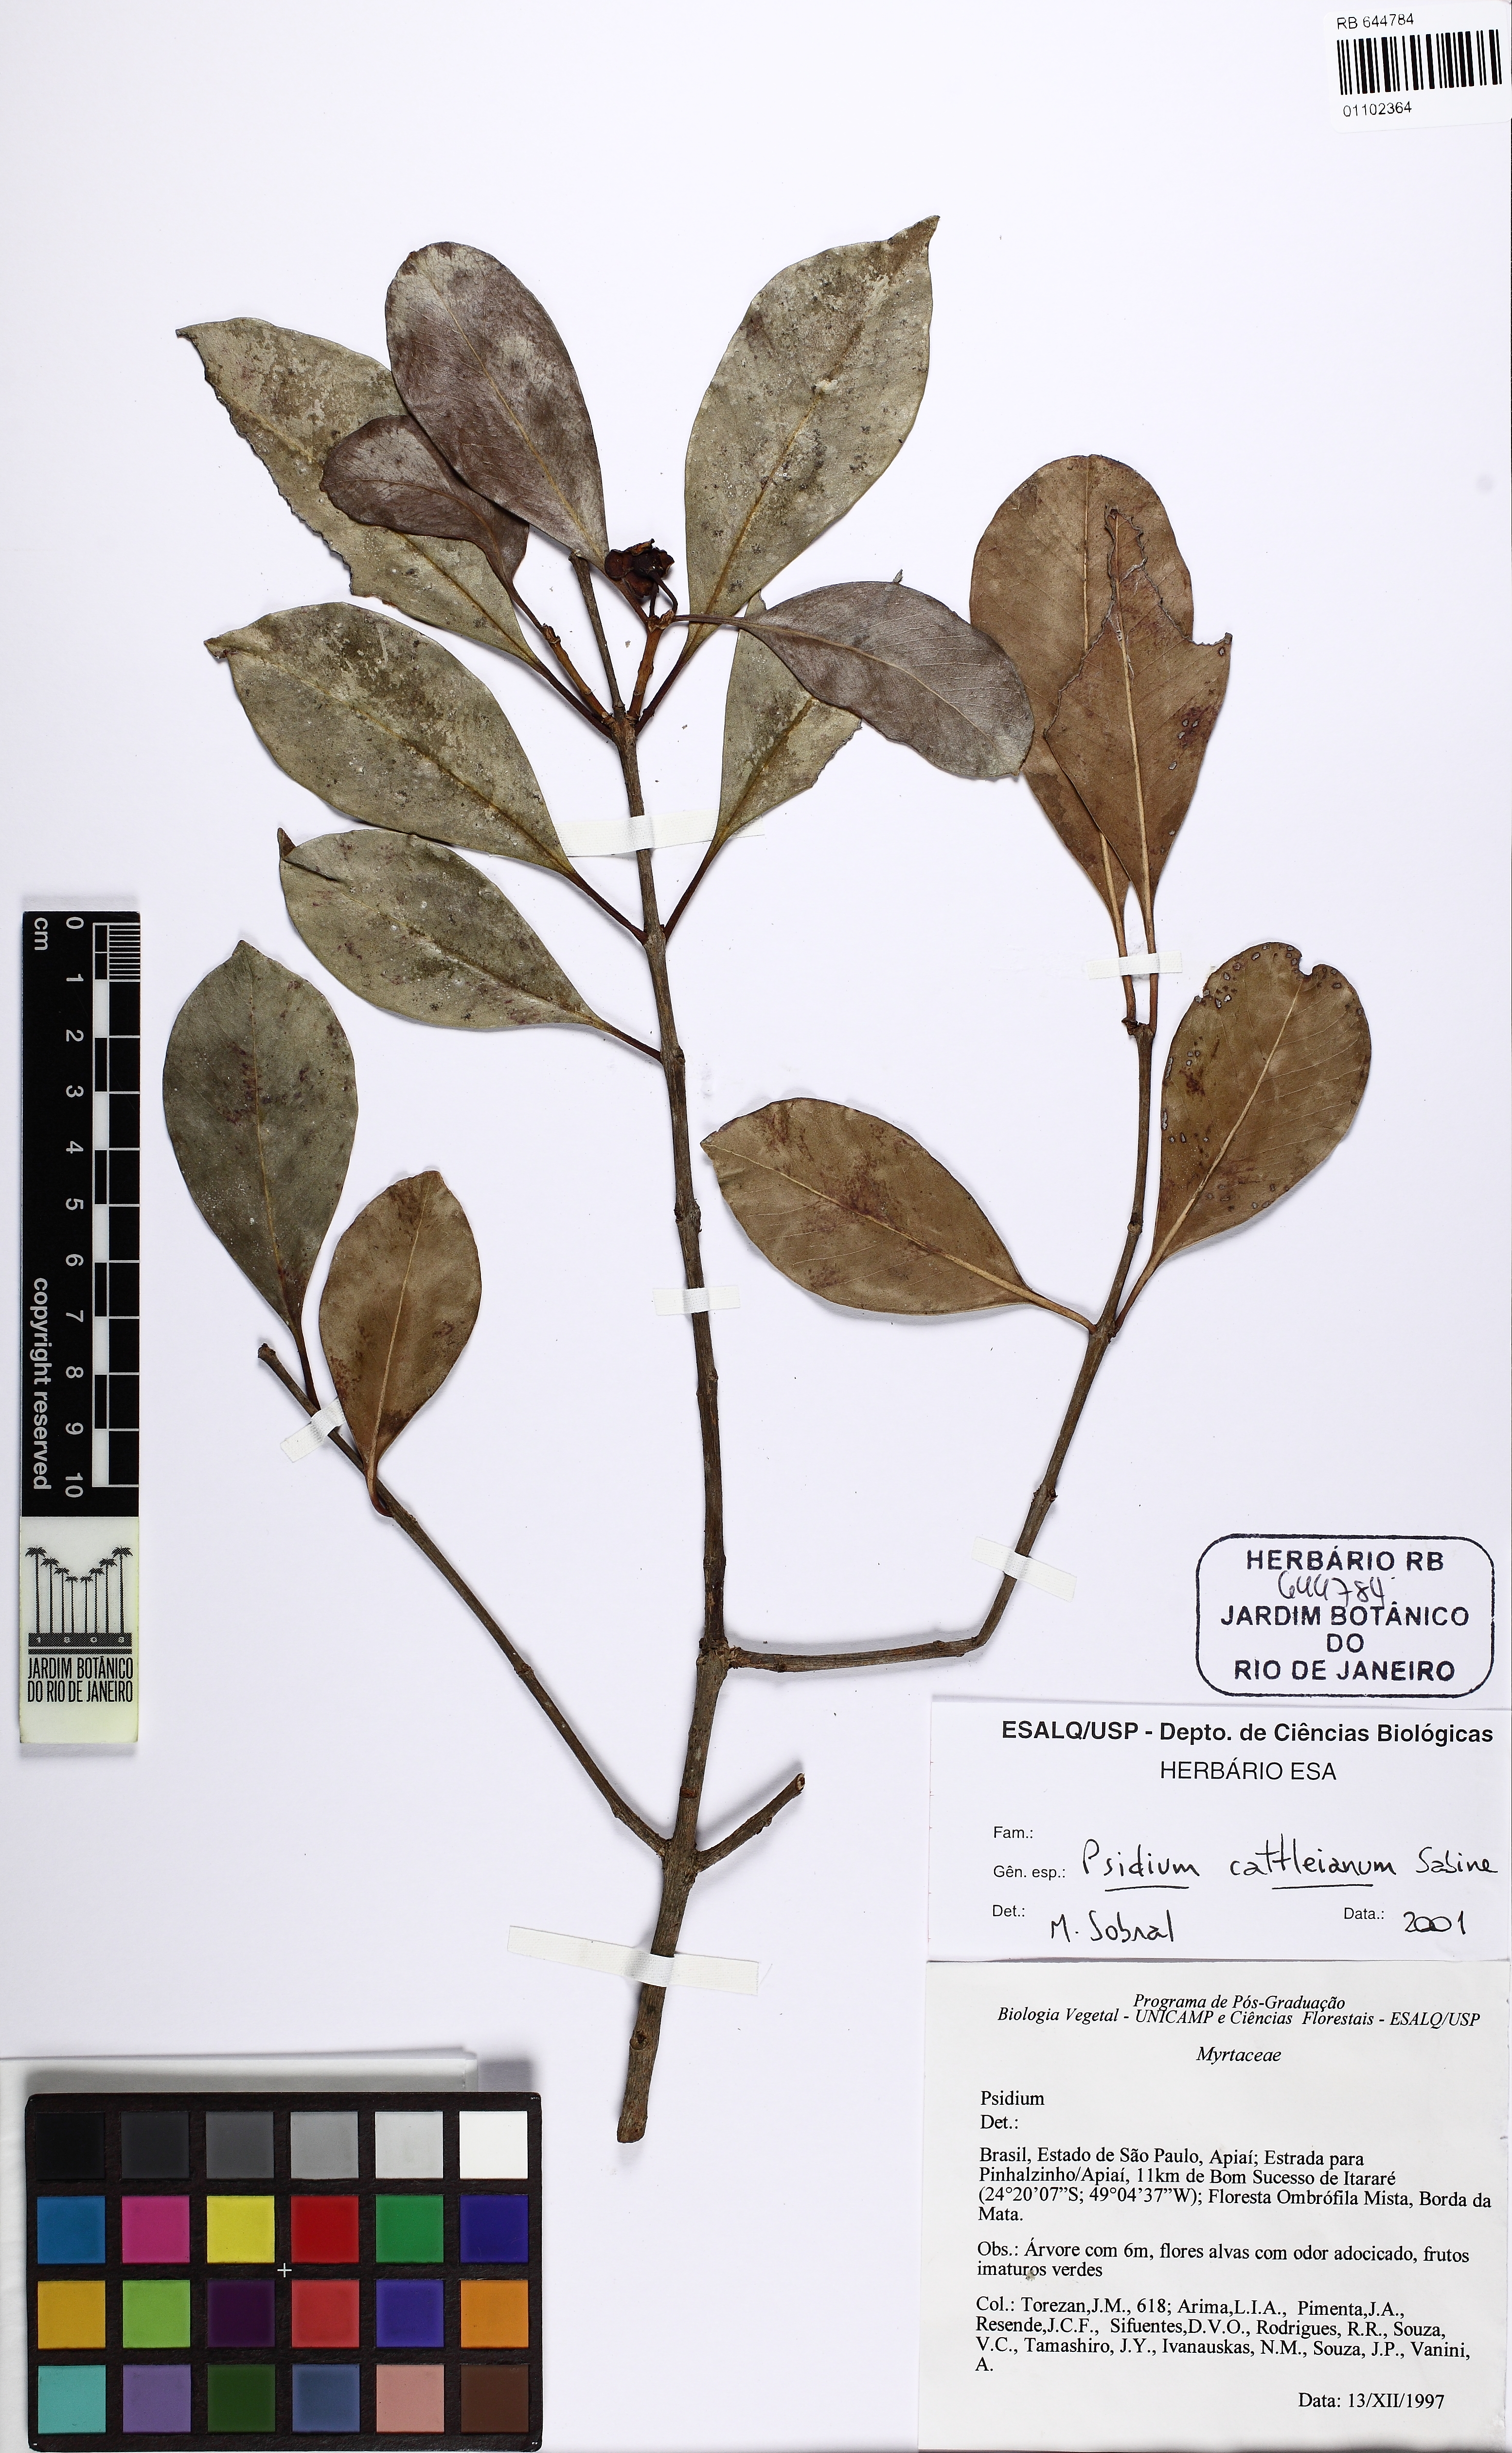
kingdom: Plantae
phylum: Tracheophyta
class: Magnoliopsida
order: Myrtales
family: Myrtaceae
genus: Psidium
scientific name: Psidium cattleianum
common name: Strawberry guava
